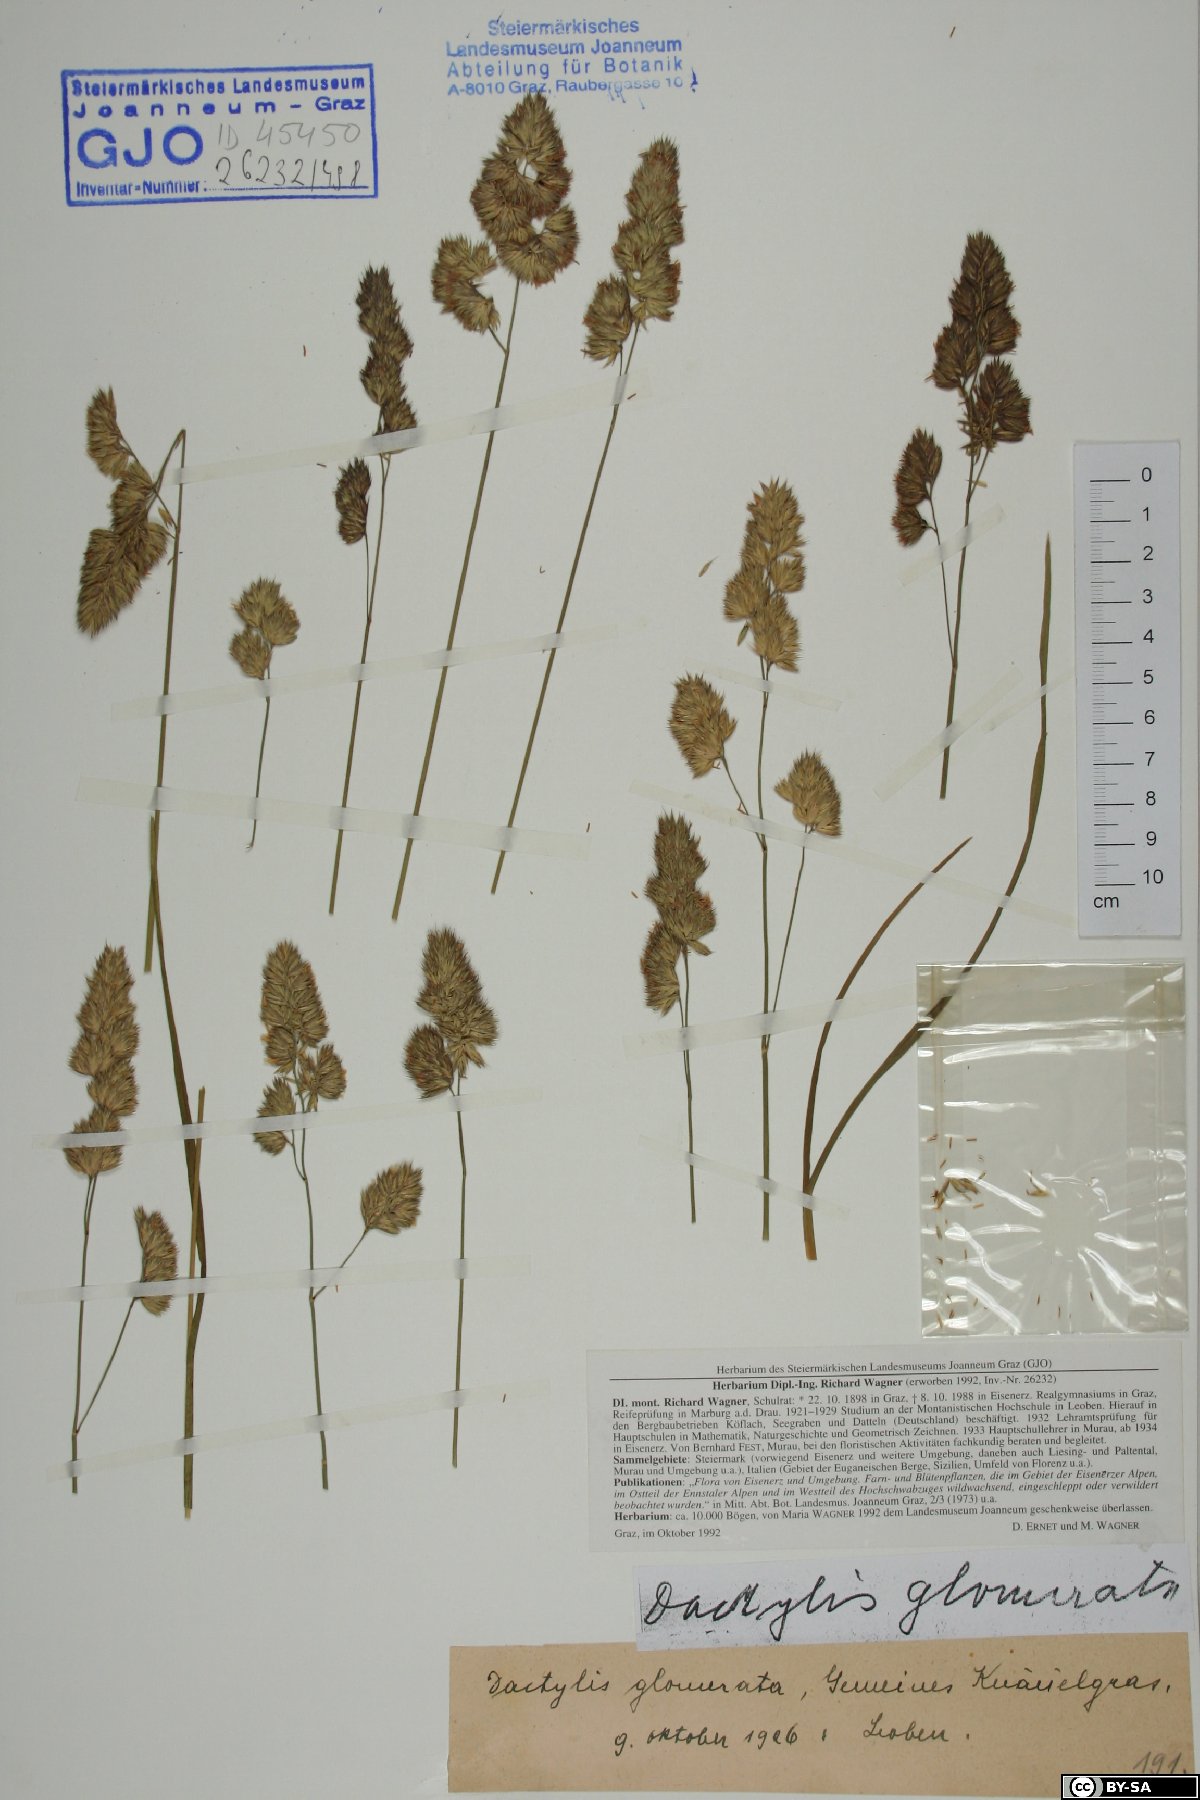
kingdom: Plantae
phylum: Tracheophyta
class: Liliopsida
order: Poales
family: Poaceae
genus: Dactylis
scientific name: Dactylis glomerata
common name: Orchardgrass
